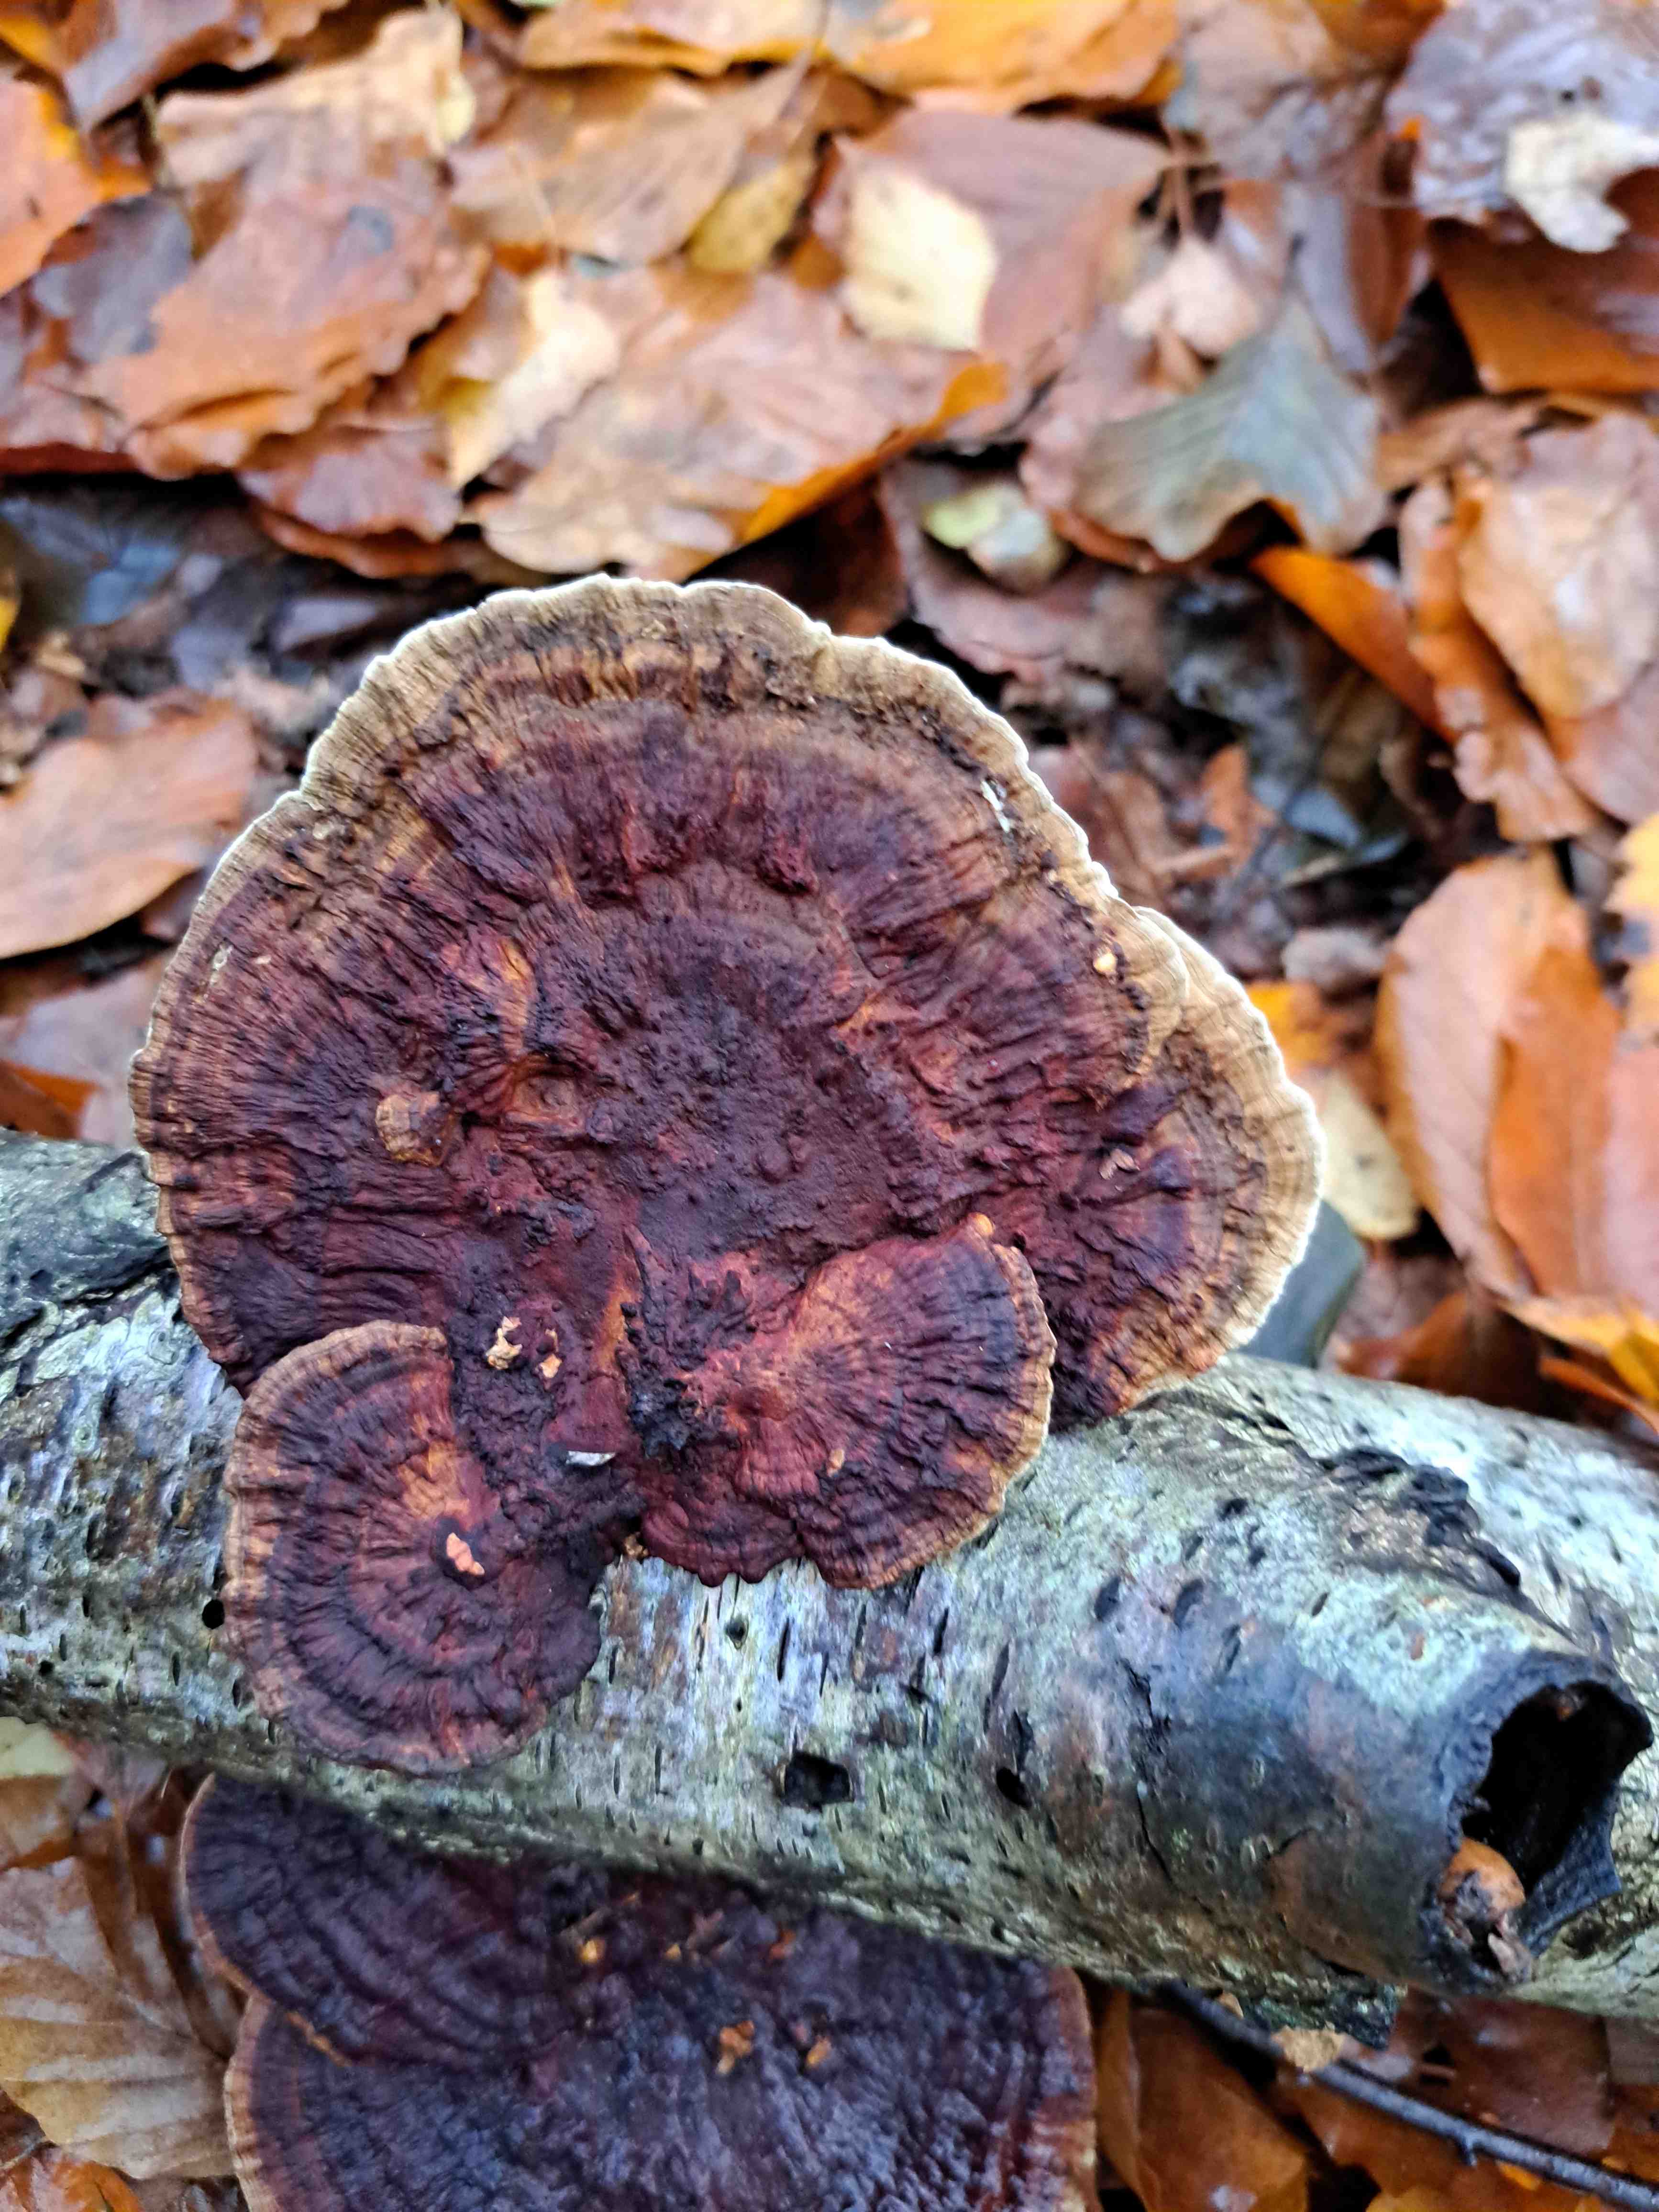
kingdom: Fungi
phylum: Basidiomycota
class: Agaricomycetes
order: Polyporales
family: Polyporaceae
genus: Daedaleopsis
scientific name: Daedaleopsis confragosa
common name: rødmende læderporesvamp
